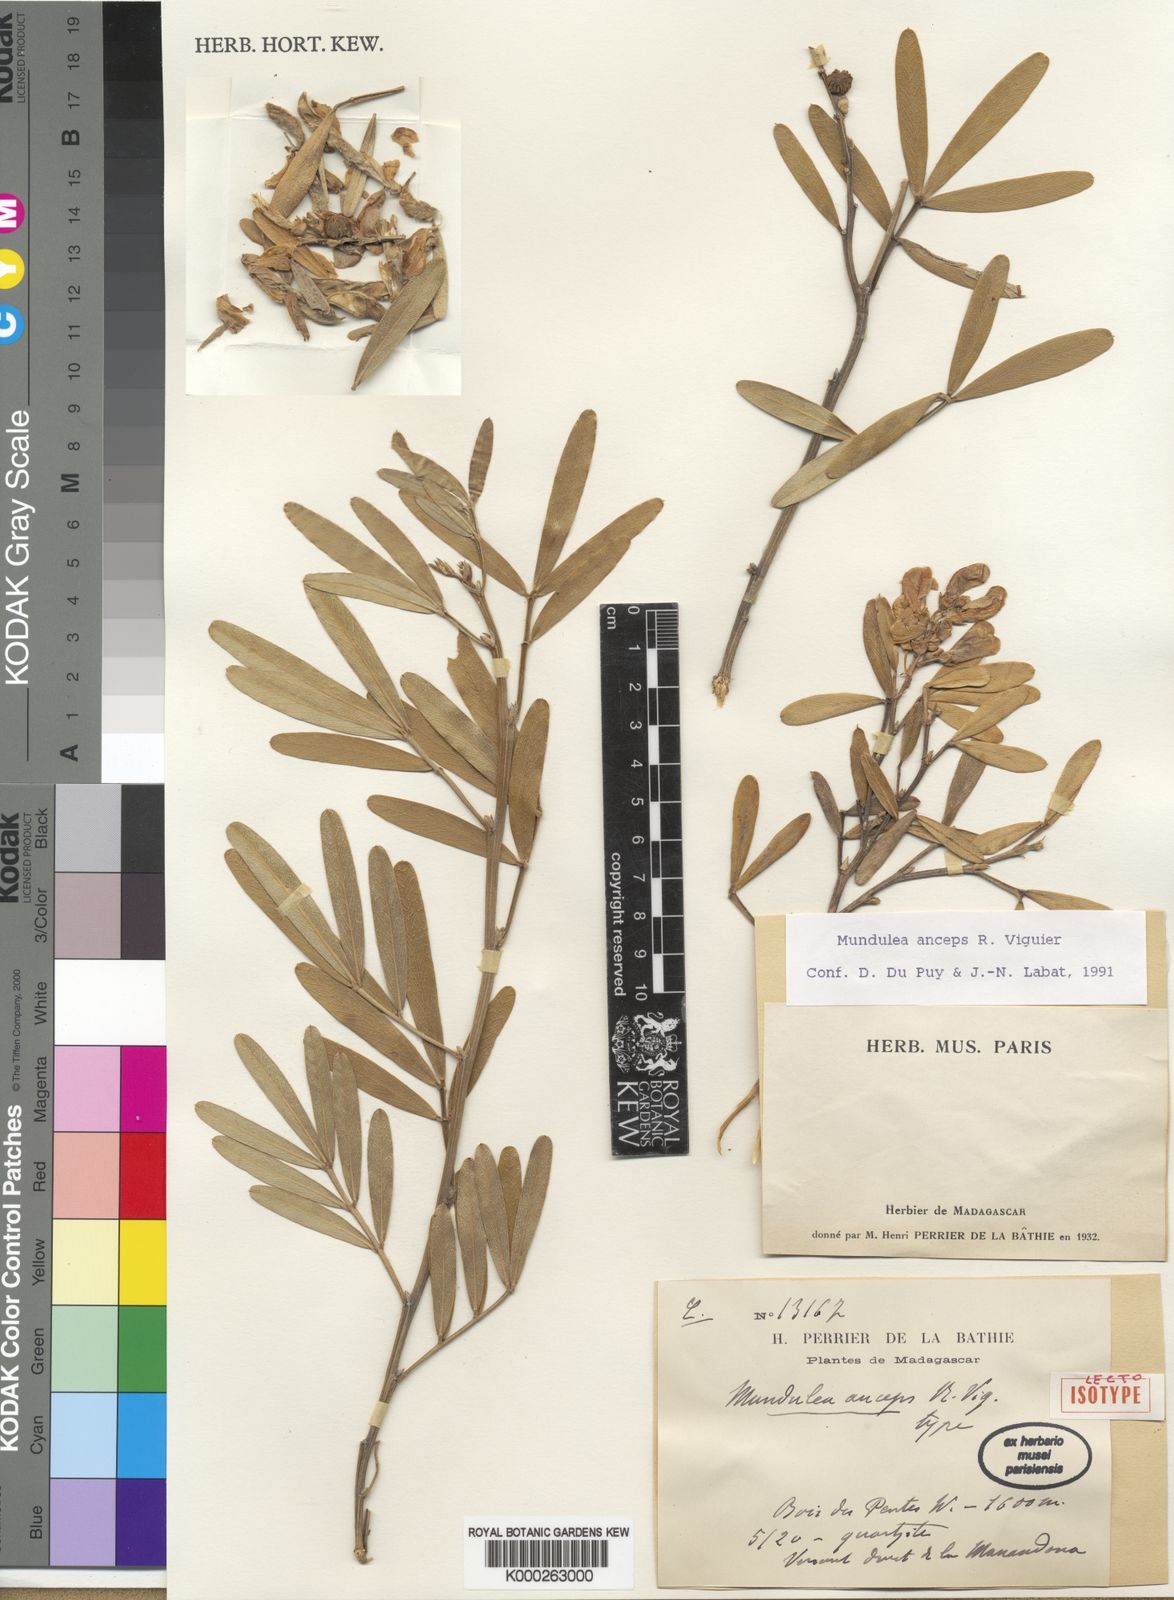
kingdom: Plantae
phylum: Tracheophyta
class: Magnoliopsida
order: Fabales
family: Fabaceae
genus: Mundulea
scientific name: Mundulea anceps
